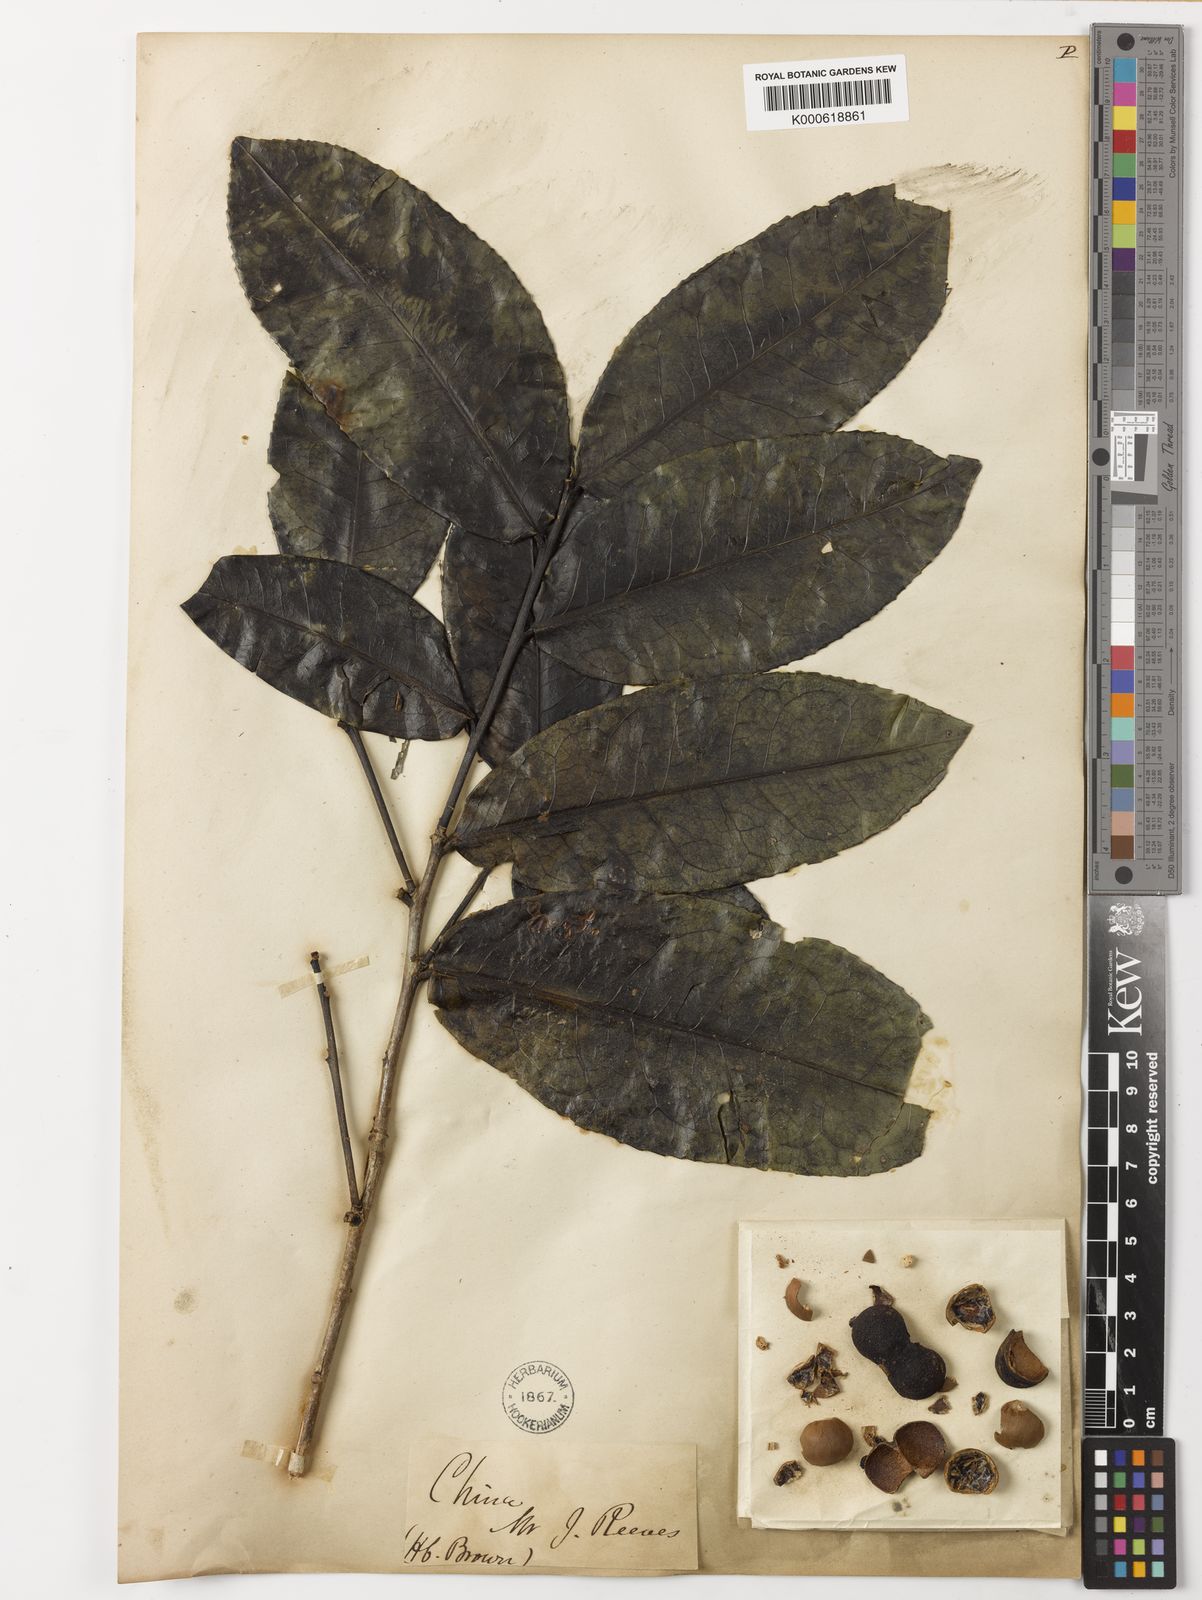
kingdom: Plantae
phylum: Tracheophyta
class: Magnoliopsida
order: Ericales
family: Theaceae
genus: Camellia
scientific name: Camellia sinensis
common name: Tea
